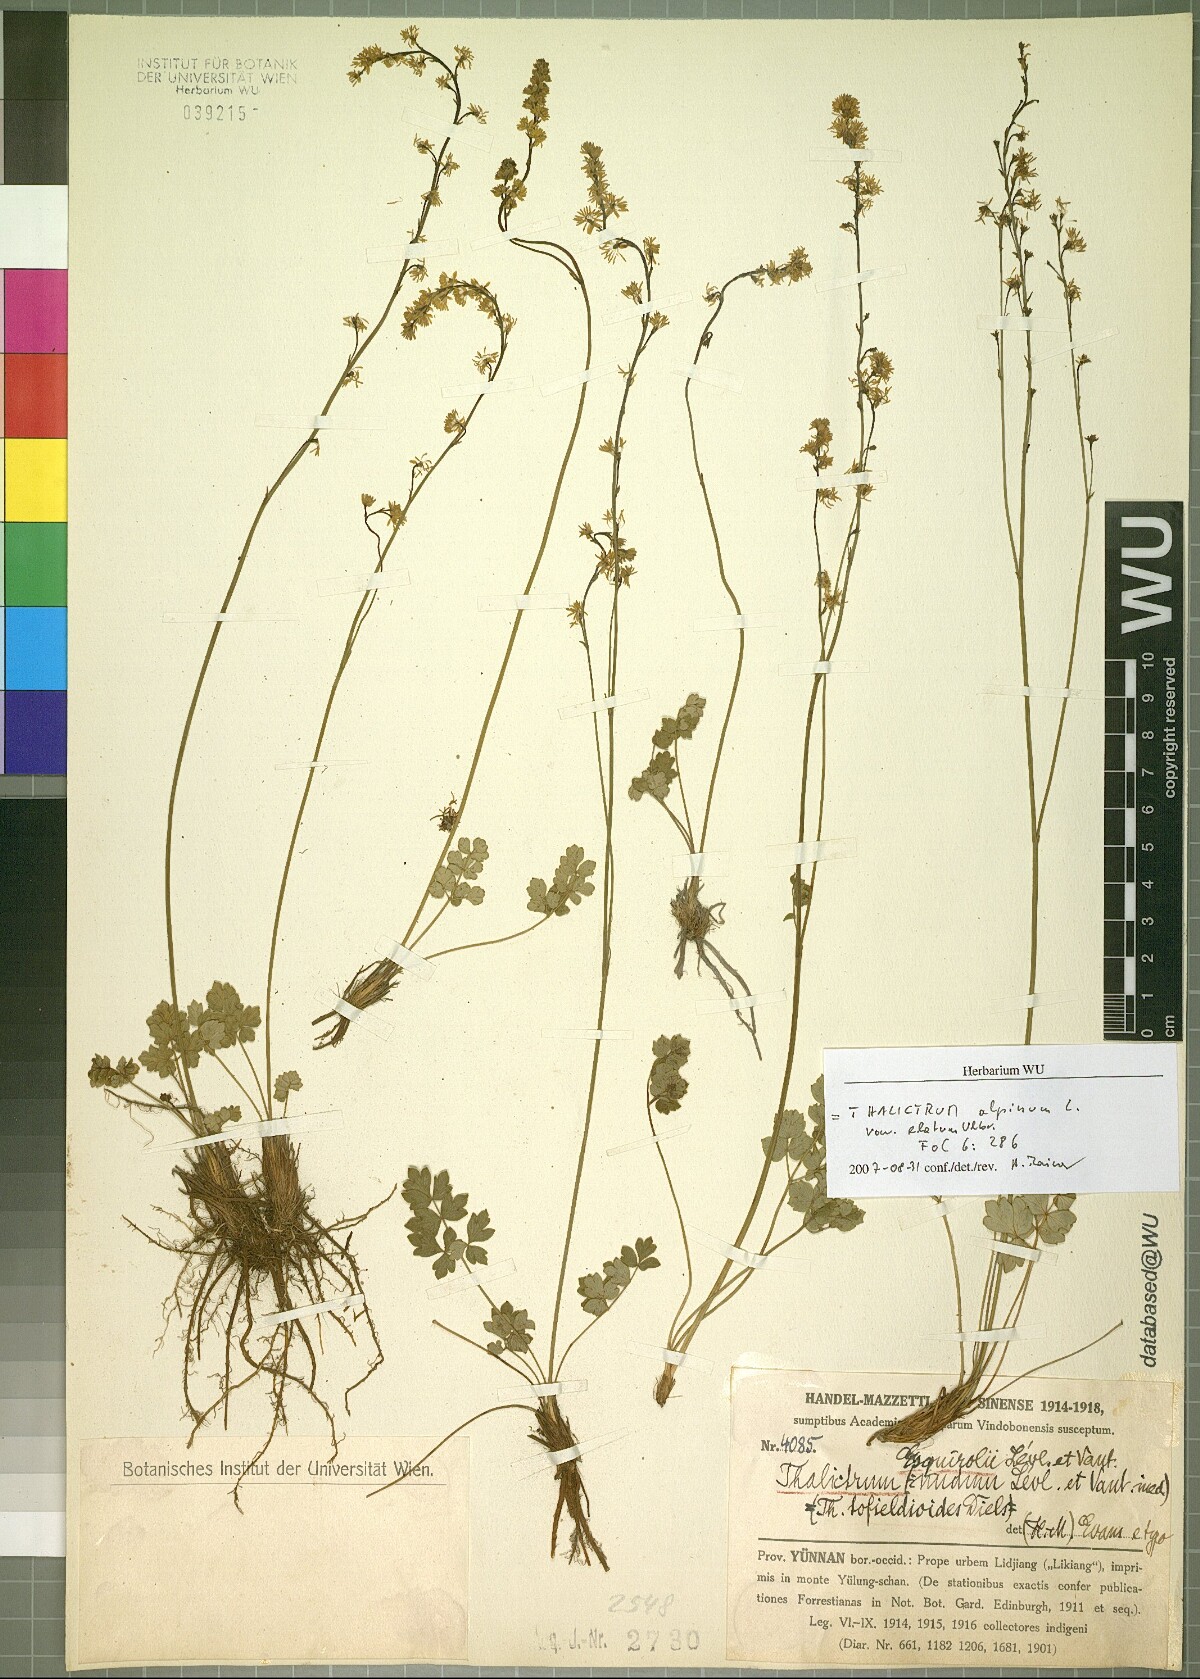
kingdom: Plantae
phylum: Tracheophyta
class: Magnoliopsida
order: Ranunculales
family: Ranunculaceae
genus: Thalictrum
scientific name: Thalictrum alpinum
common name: Alpine meadow-rue
